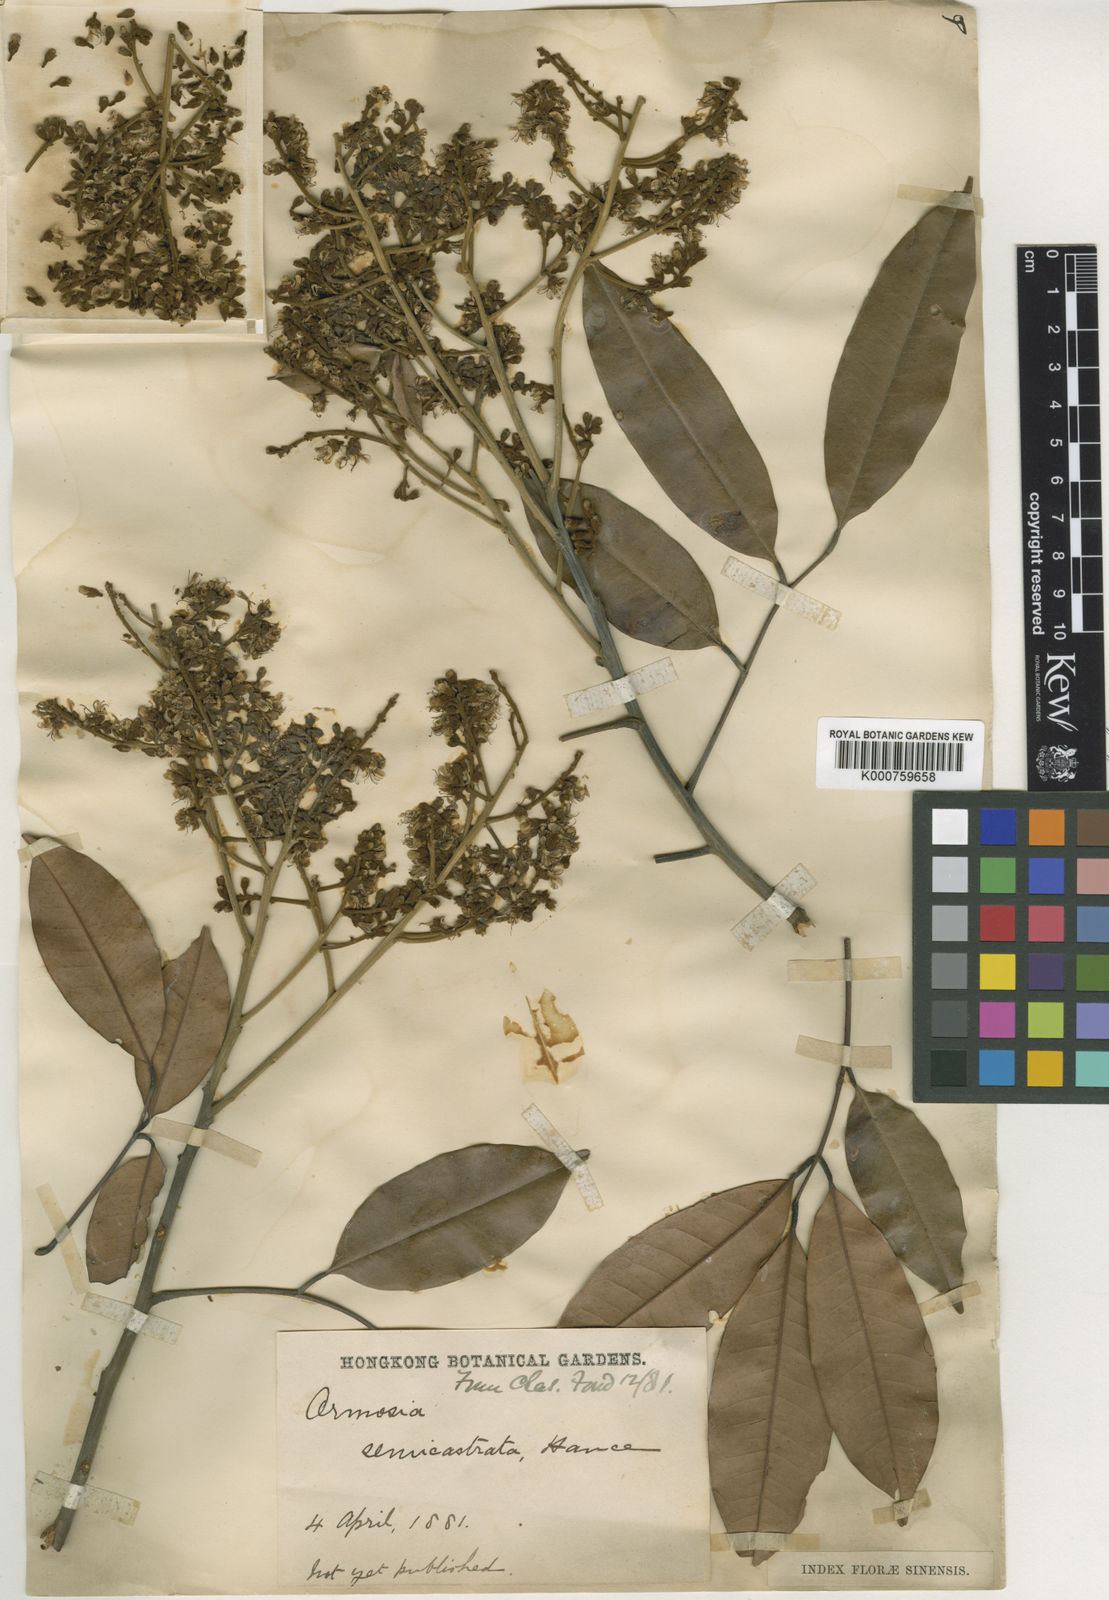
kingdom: Plantae
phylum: Tracheophyta
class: Magnoliopsida
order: Fabales
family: Fabaceae
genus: Ormosia
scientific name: Ormosia semicastrata
